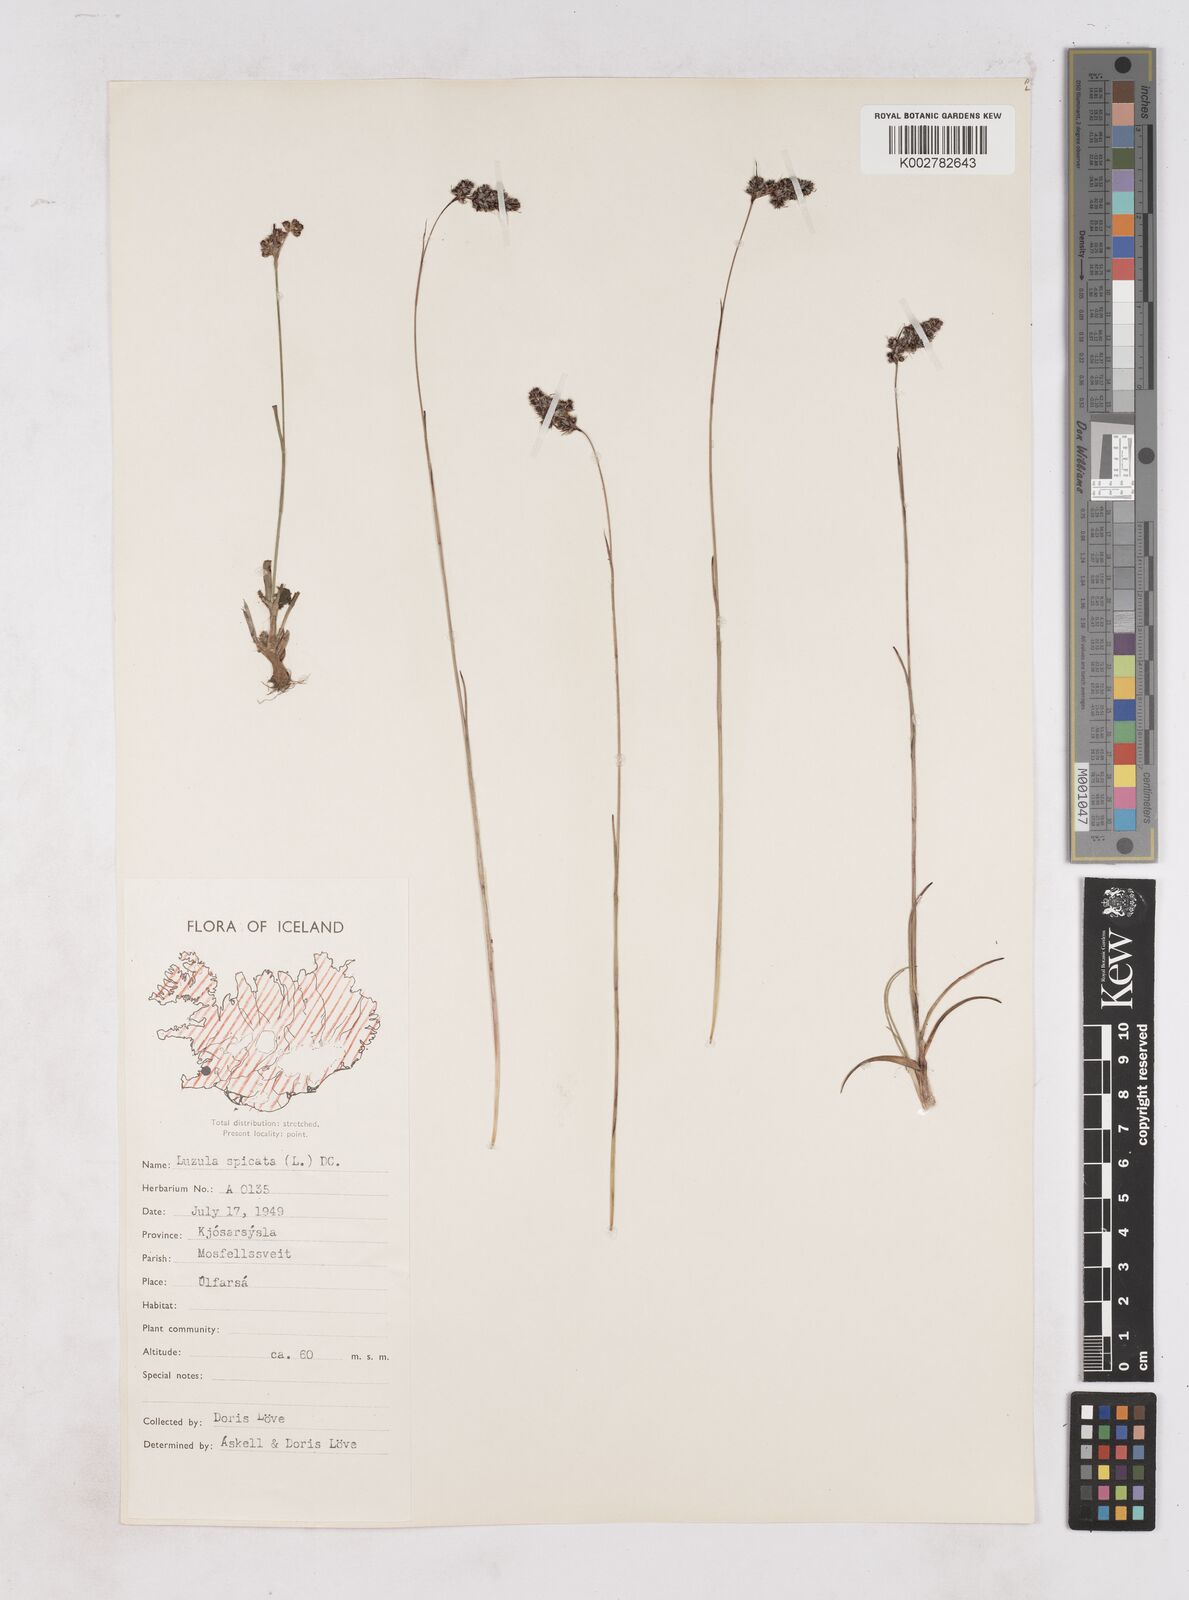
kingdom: Plantae
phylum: Tracheophyta
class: Liliopsida
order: Poales
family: Juncaceae
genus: Luzula
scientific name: Luzula spicata
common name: Spiked wood-rush
